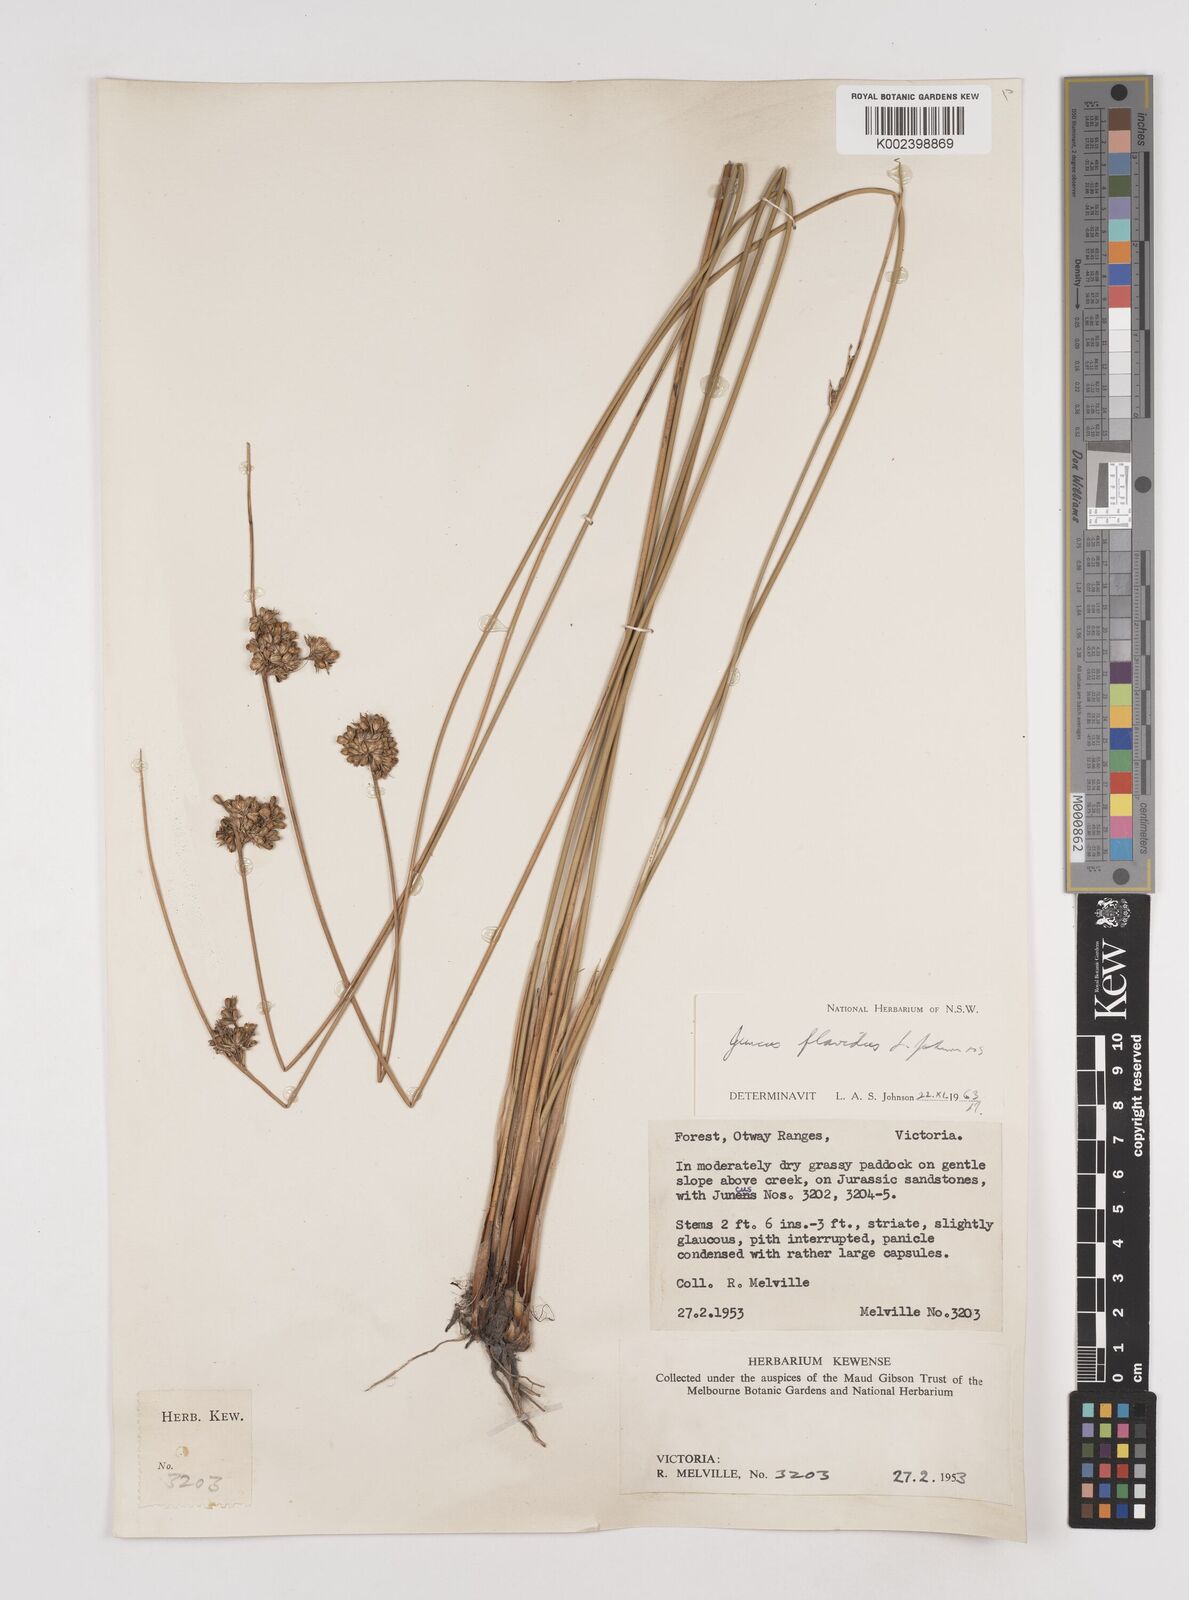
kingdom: Plantae
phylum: Tracheophyta
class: Liliopsida
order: Poales
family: Juncaceae
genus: Juncus
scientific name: Juncus flavidus
